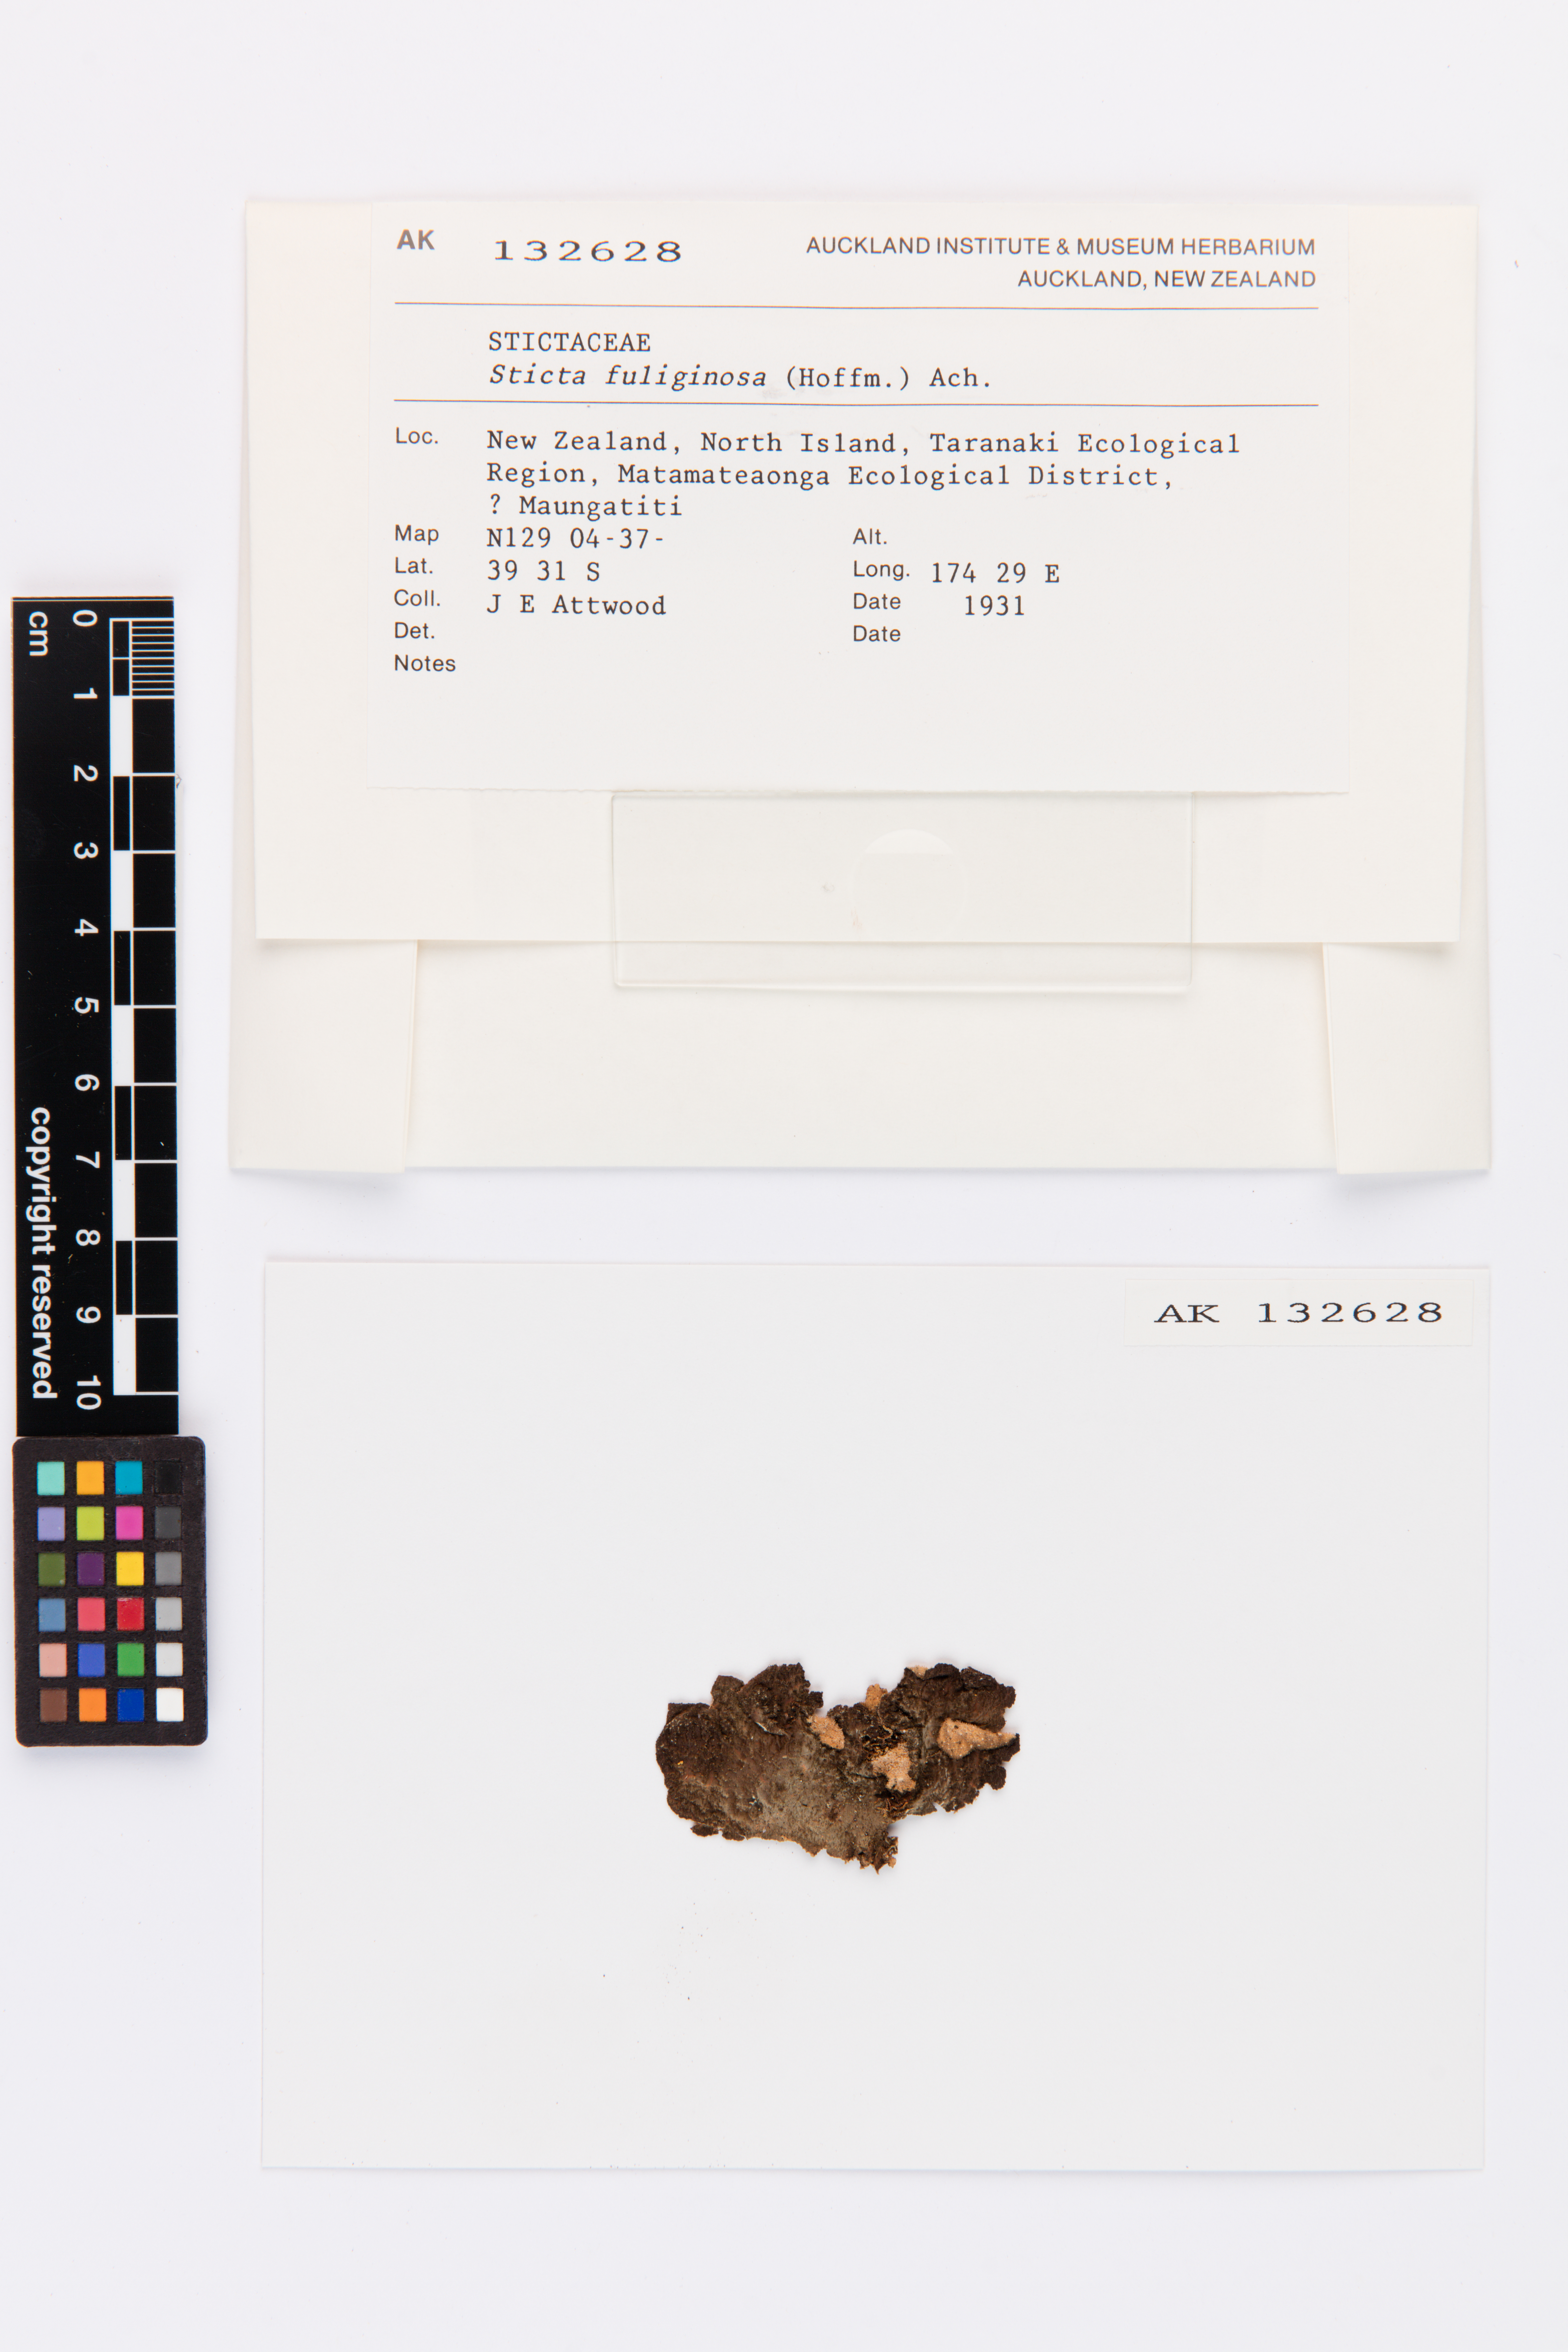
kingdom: Fungi
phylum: Ascomycota
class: Lecanoromycetes
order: Peltigerales
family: Lobariaceae
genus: Sticta
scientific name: Sticta fuliginosa
